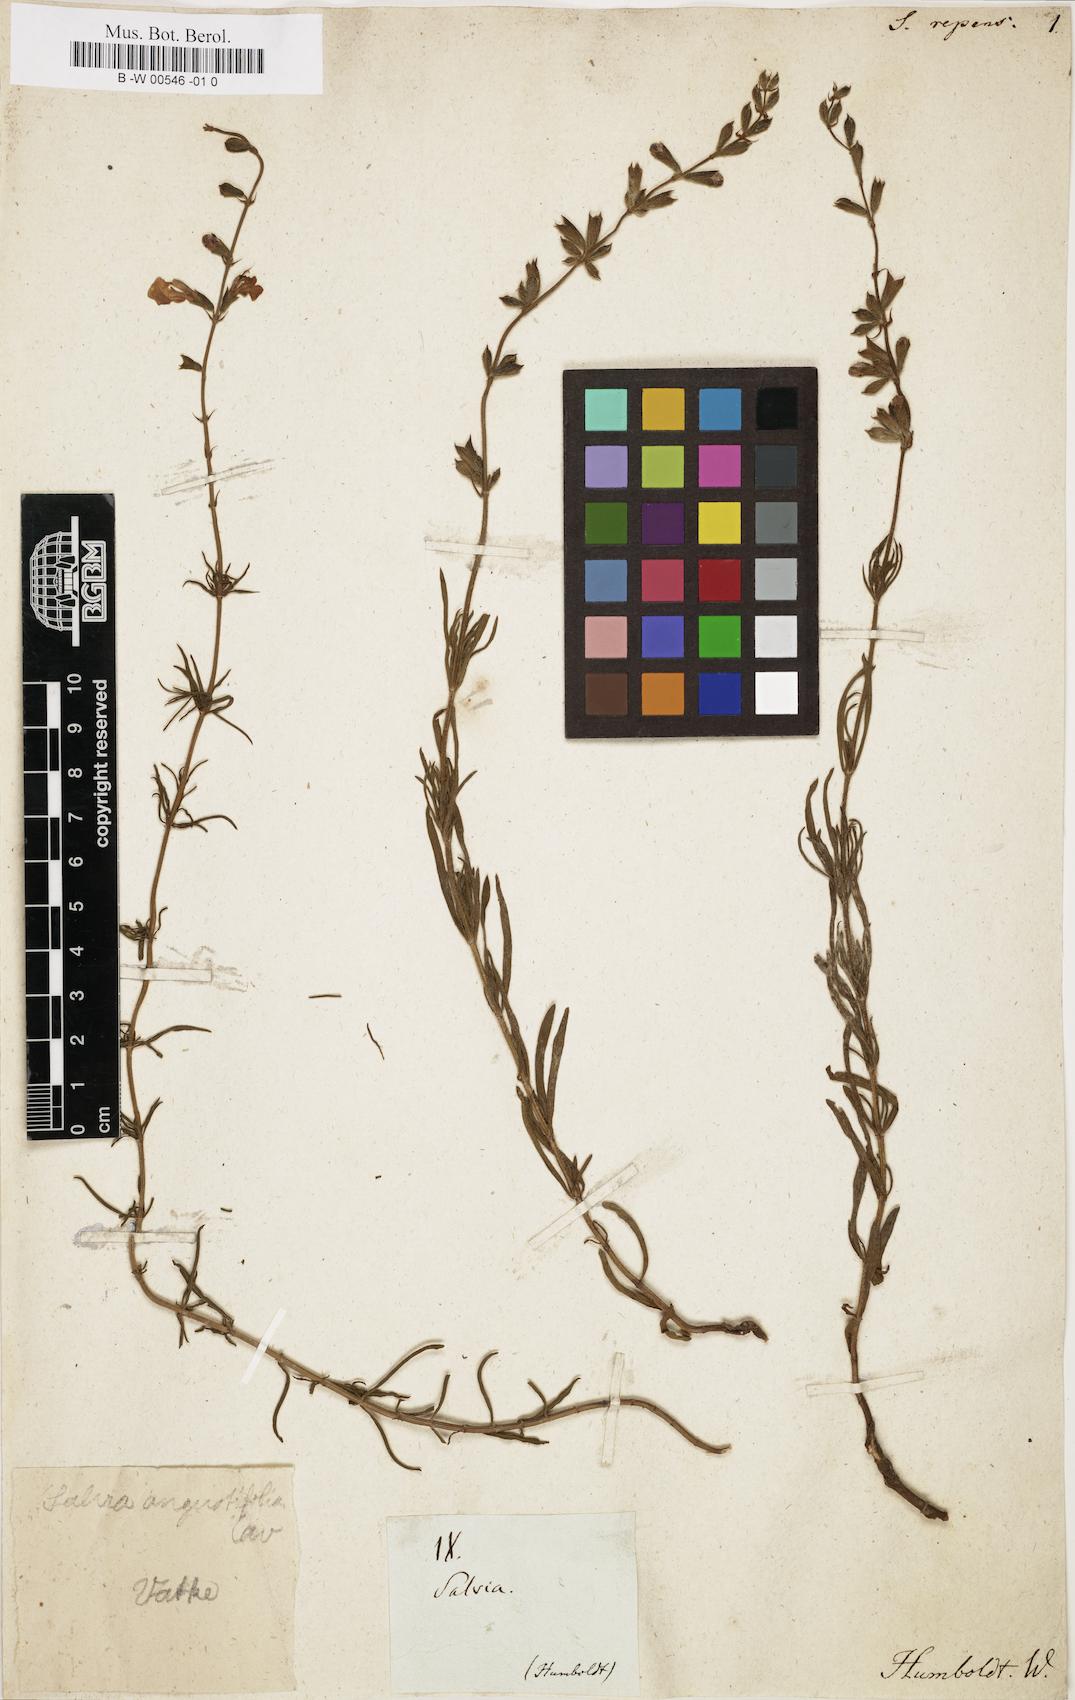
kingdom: Plantae
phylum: Tracheophyta
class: Magnoliopsida
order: Lamiales
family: Lamiaceae
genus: Salvia
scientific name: Salvia repens
